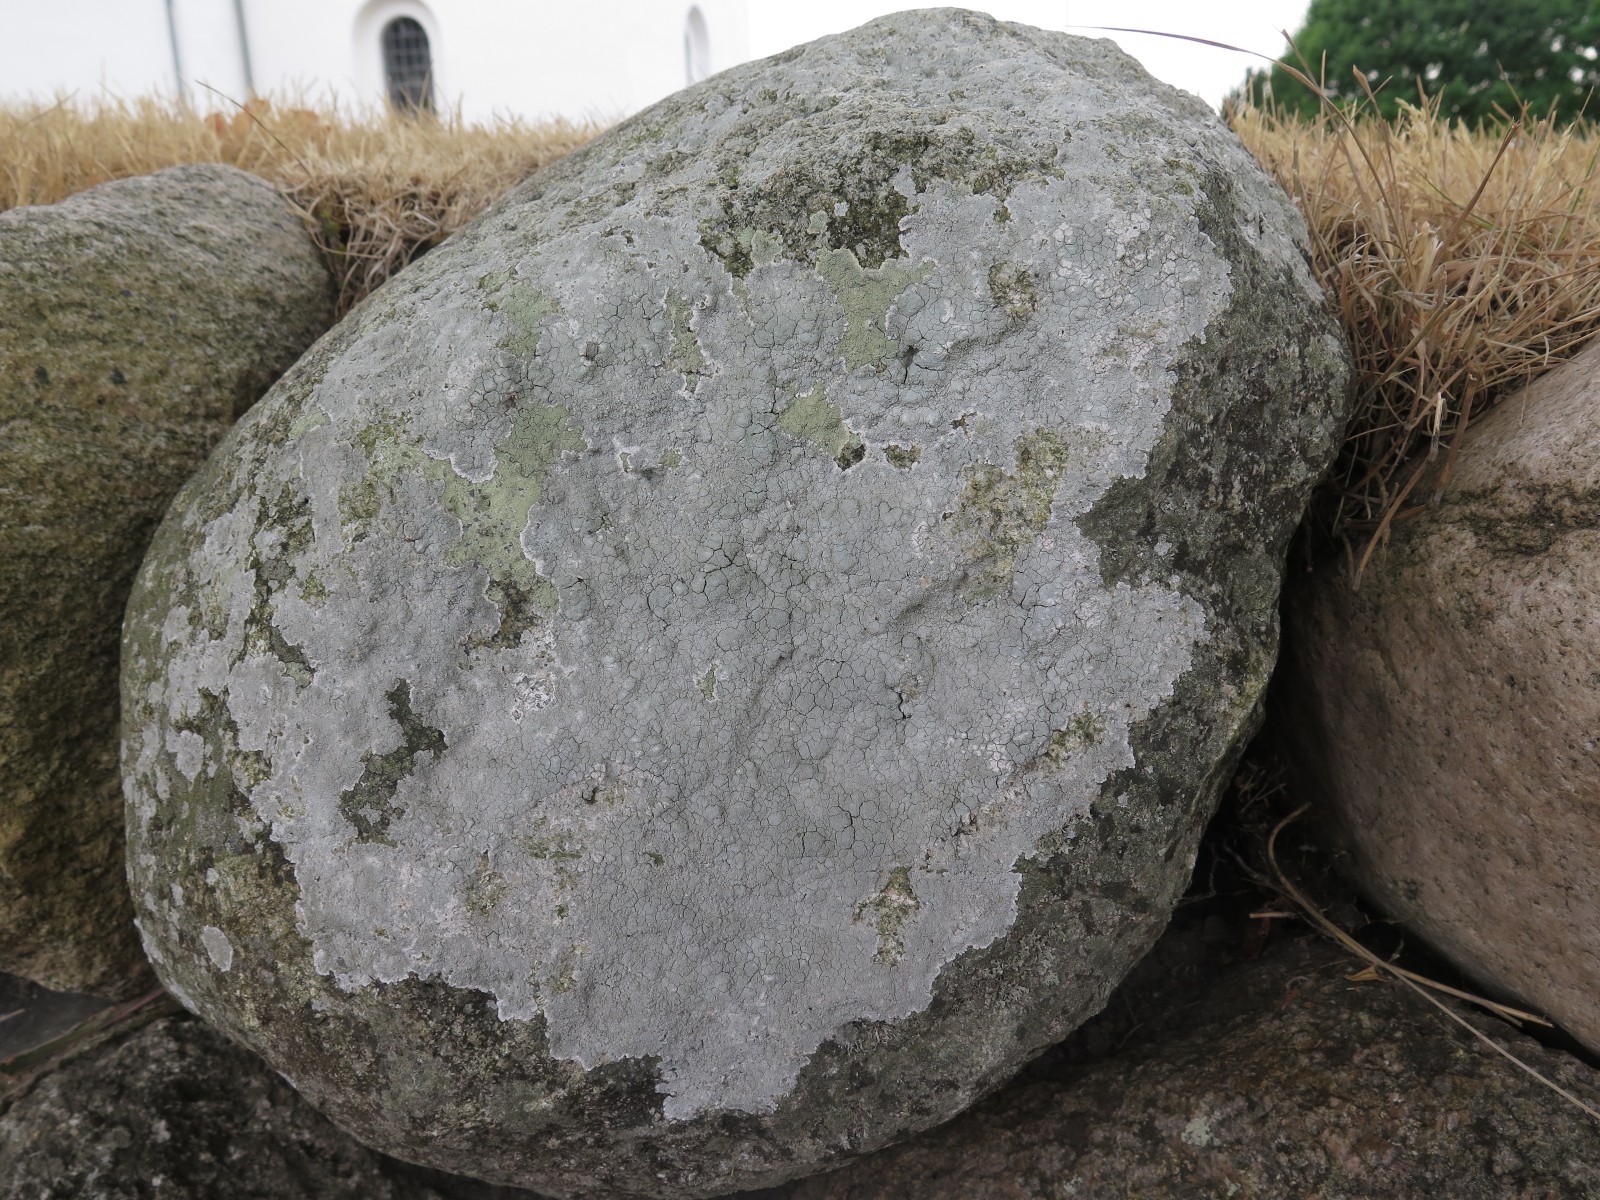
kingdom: Fungi
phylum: Ascomycota
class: Lecanoromycetes
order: Lecanorales
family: Lecanoraceae
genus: Glaucomaria
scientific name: Glaucomaria rupicola
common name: stengærde-kantskivelav
